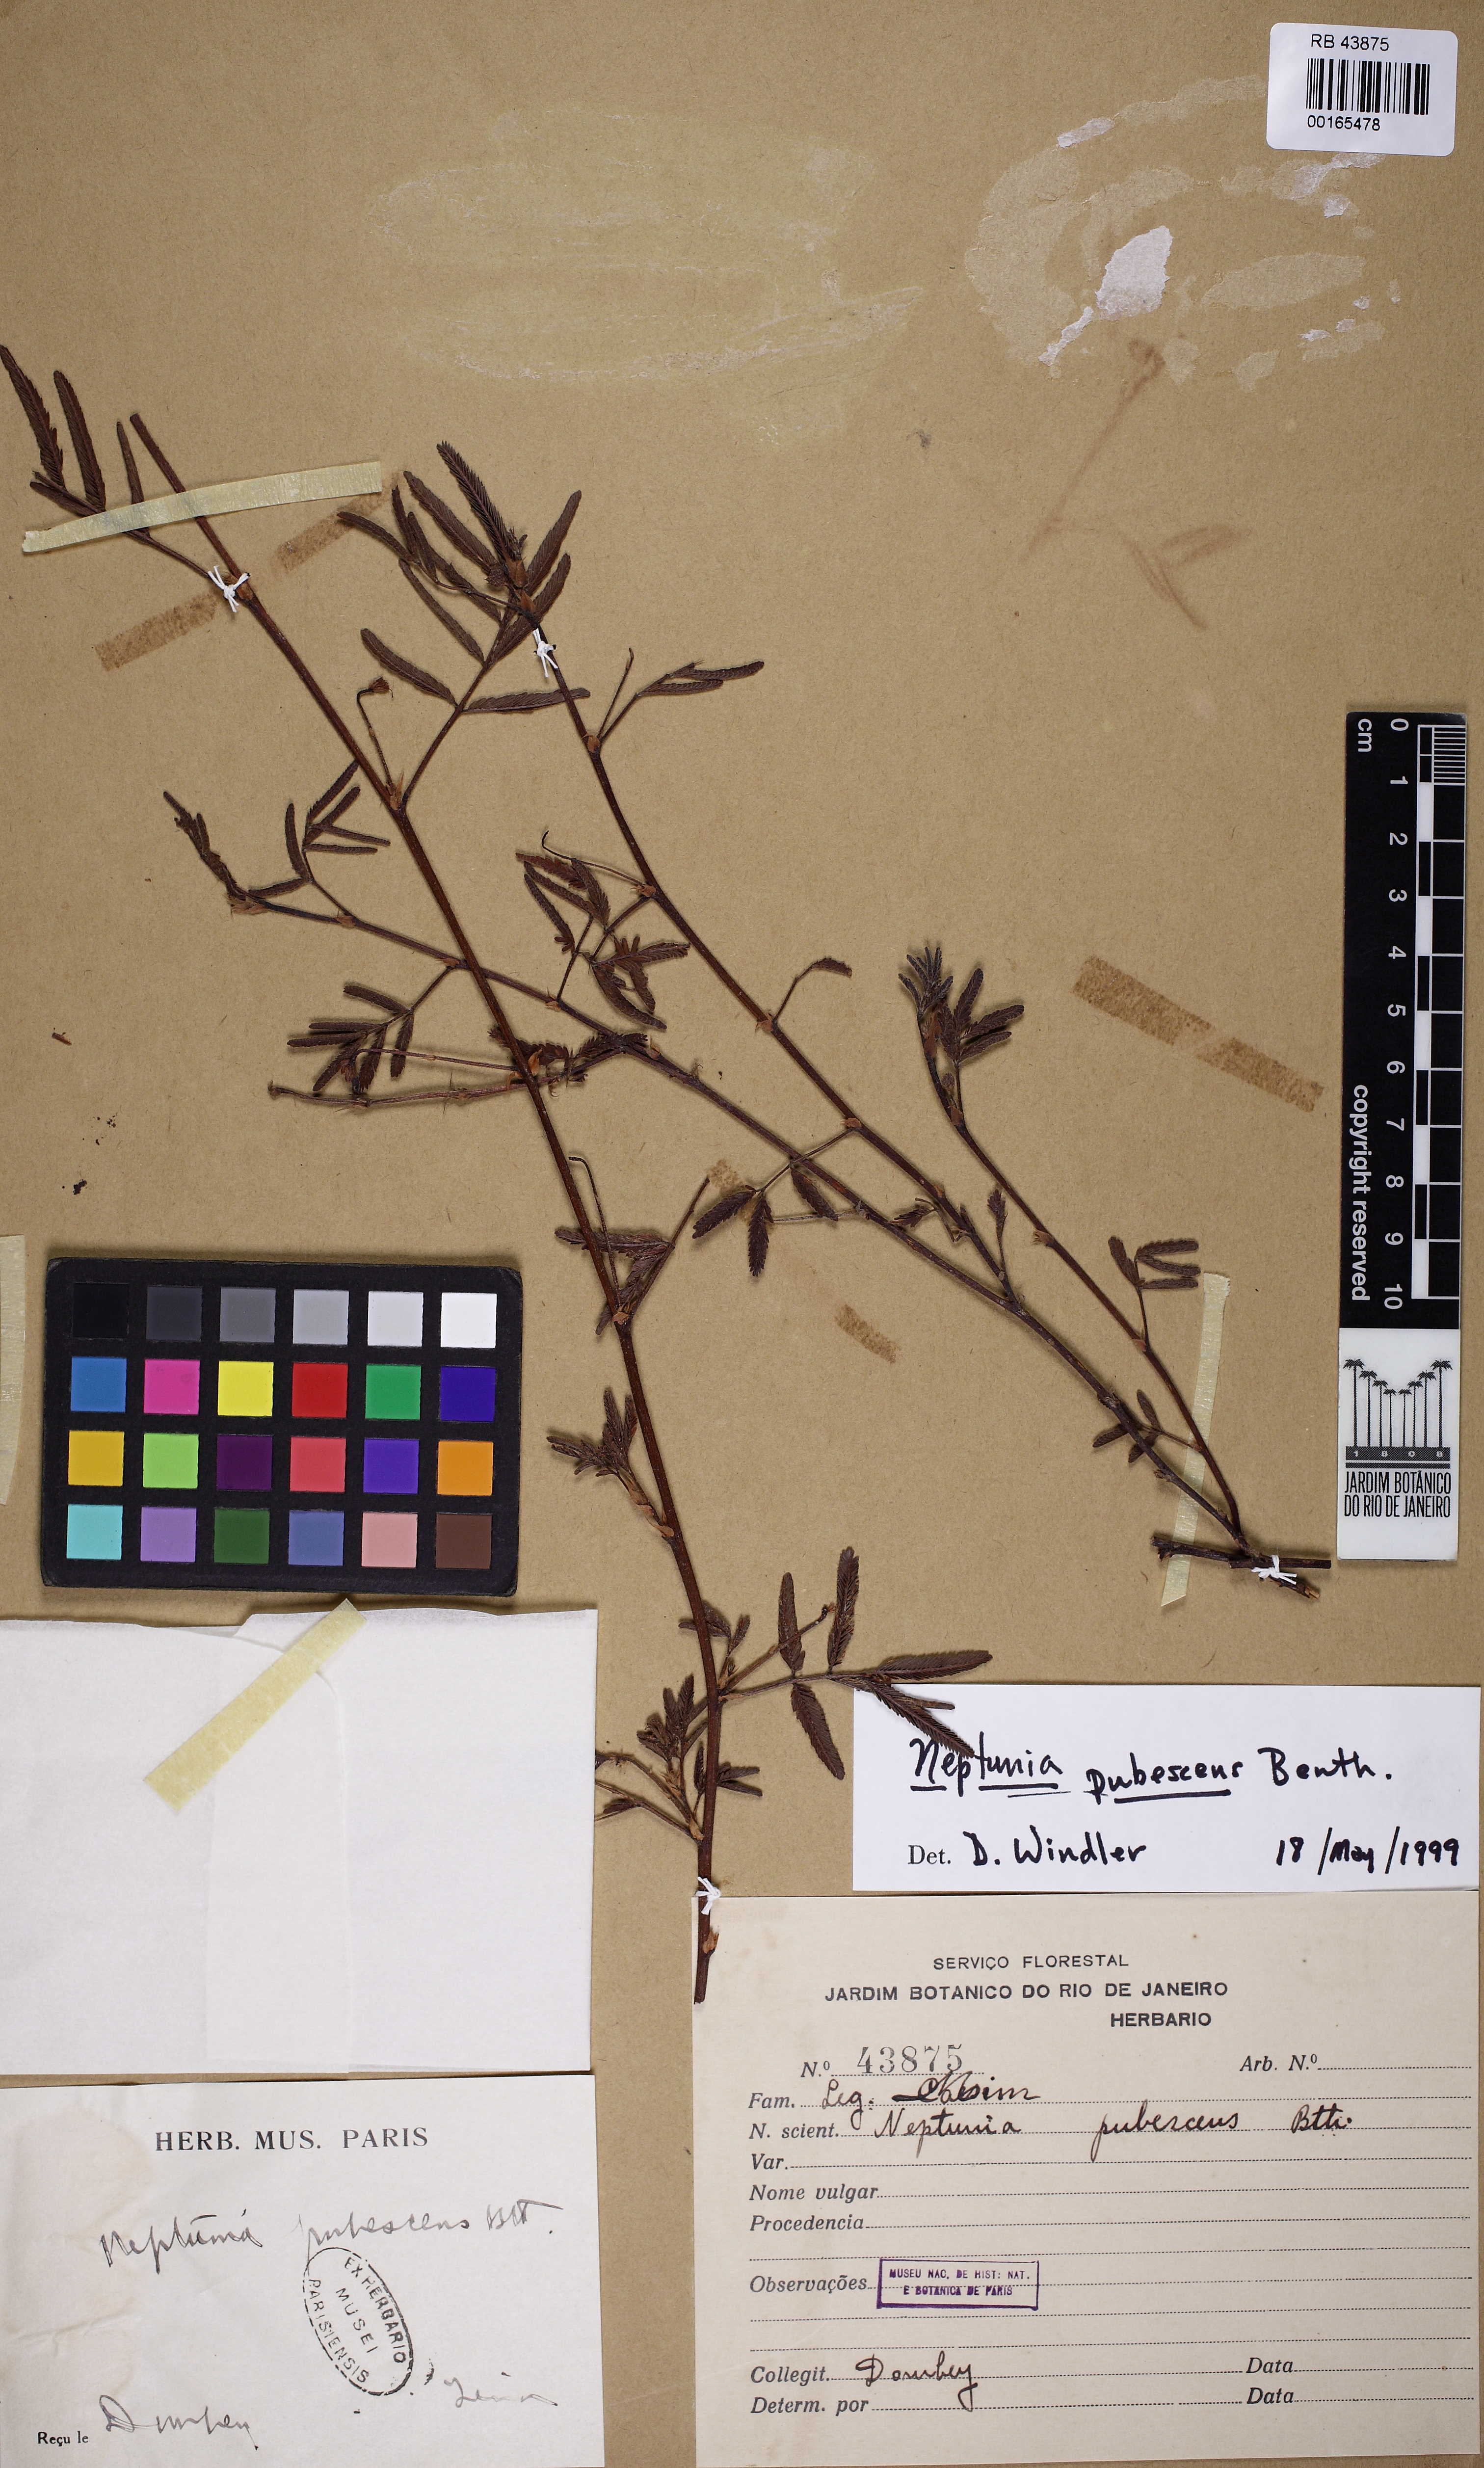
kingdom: Plantae
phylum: Tracheophyta
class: Magnoliopsida
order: Fabales
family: Fabaceae
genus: Neptunia
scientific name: Neptunia pubescens
